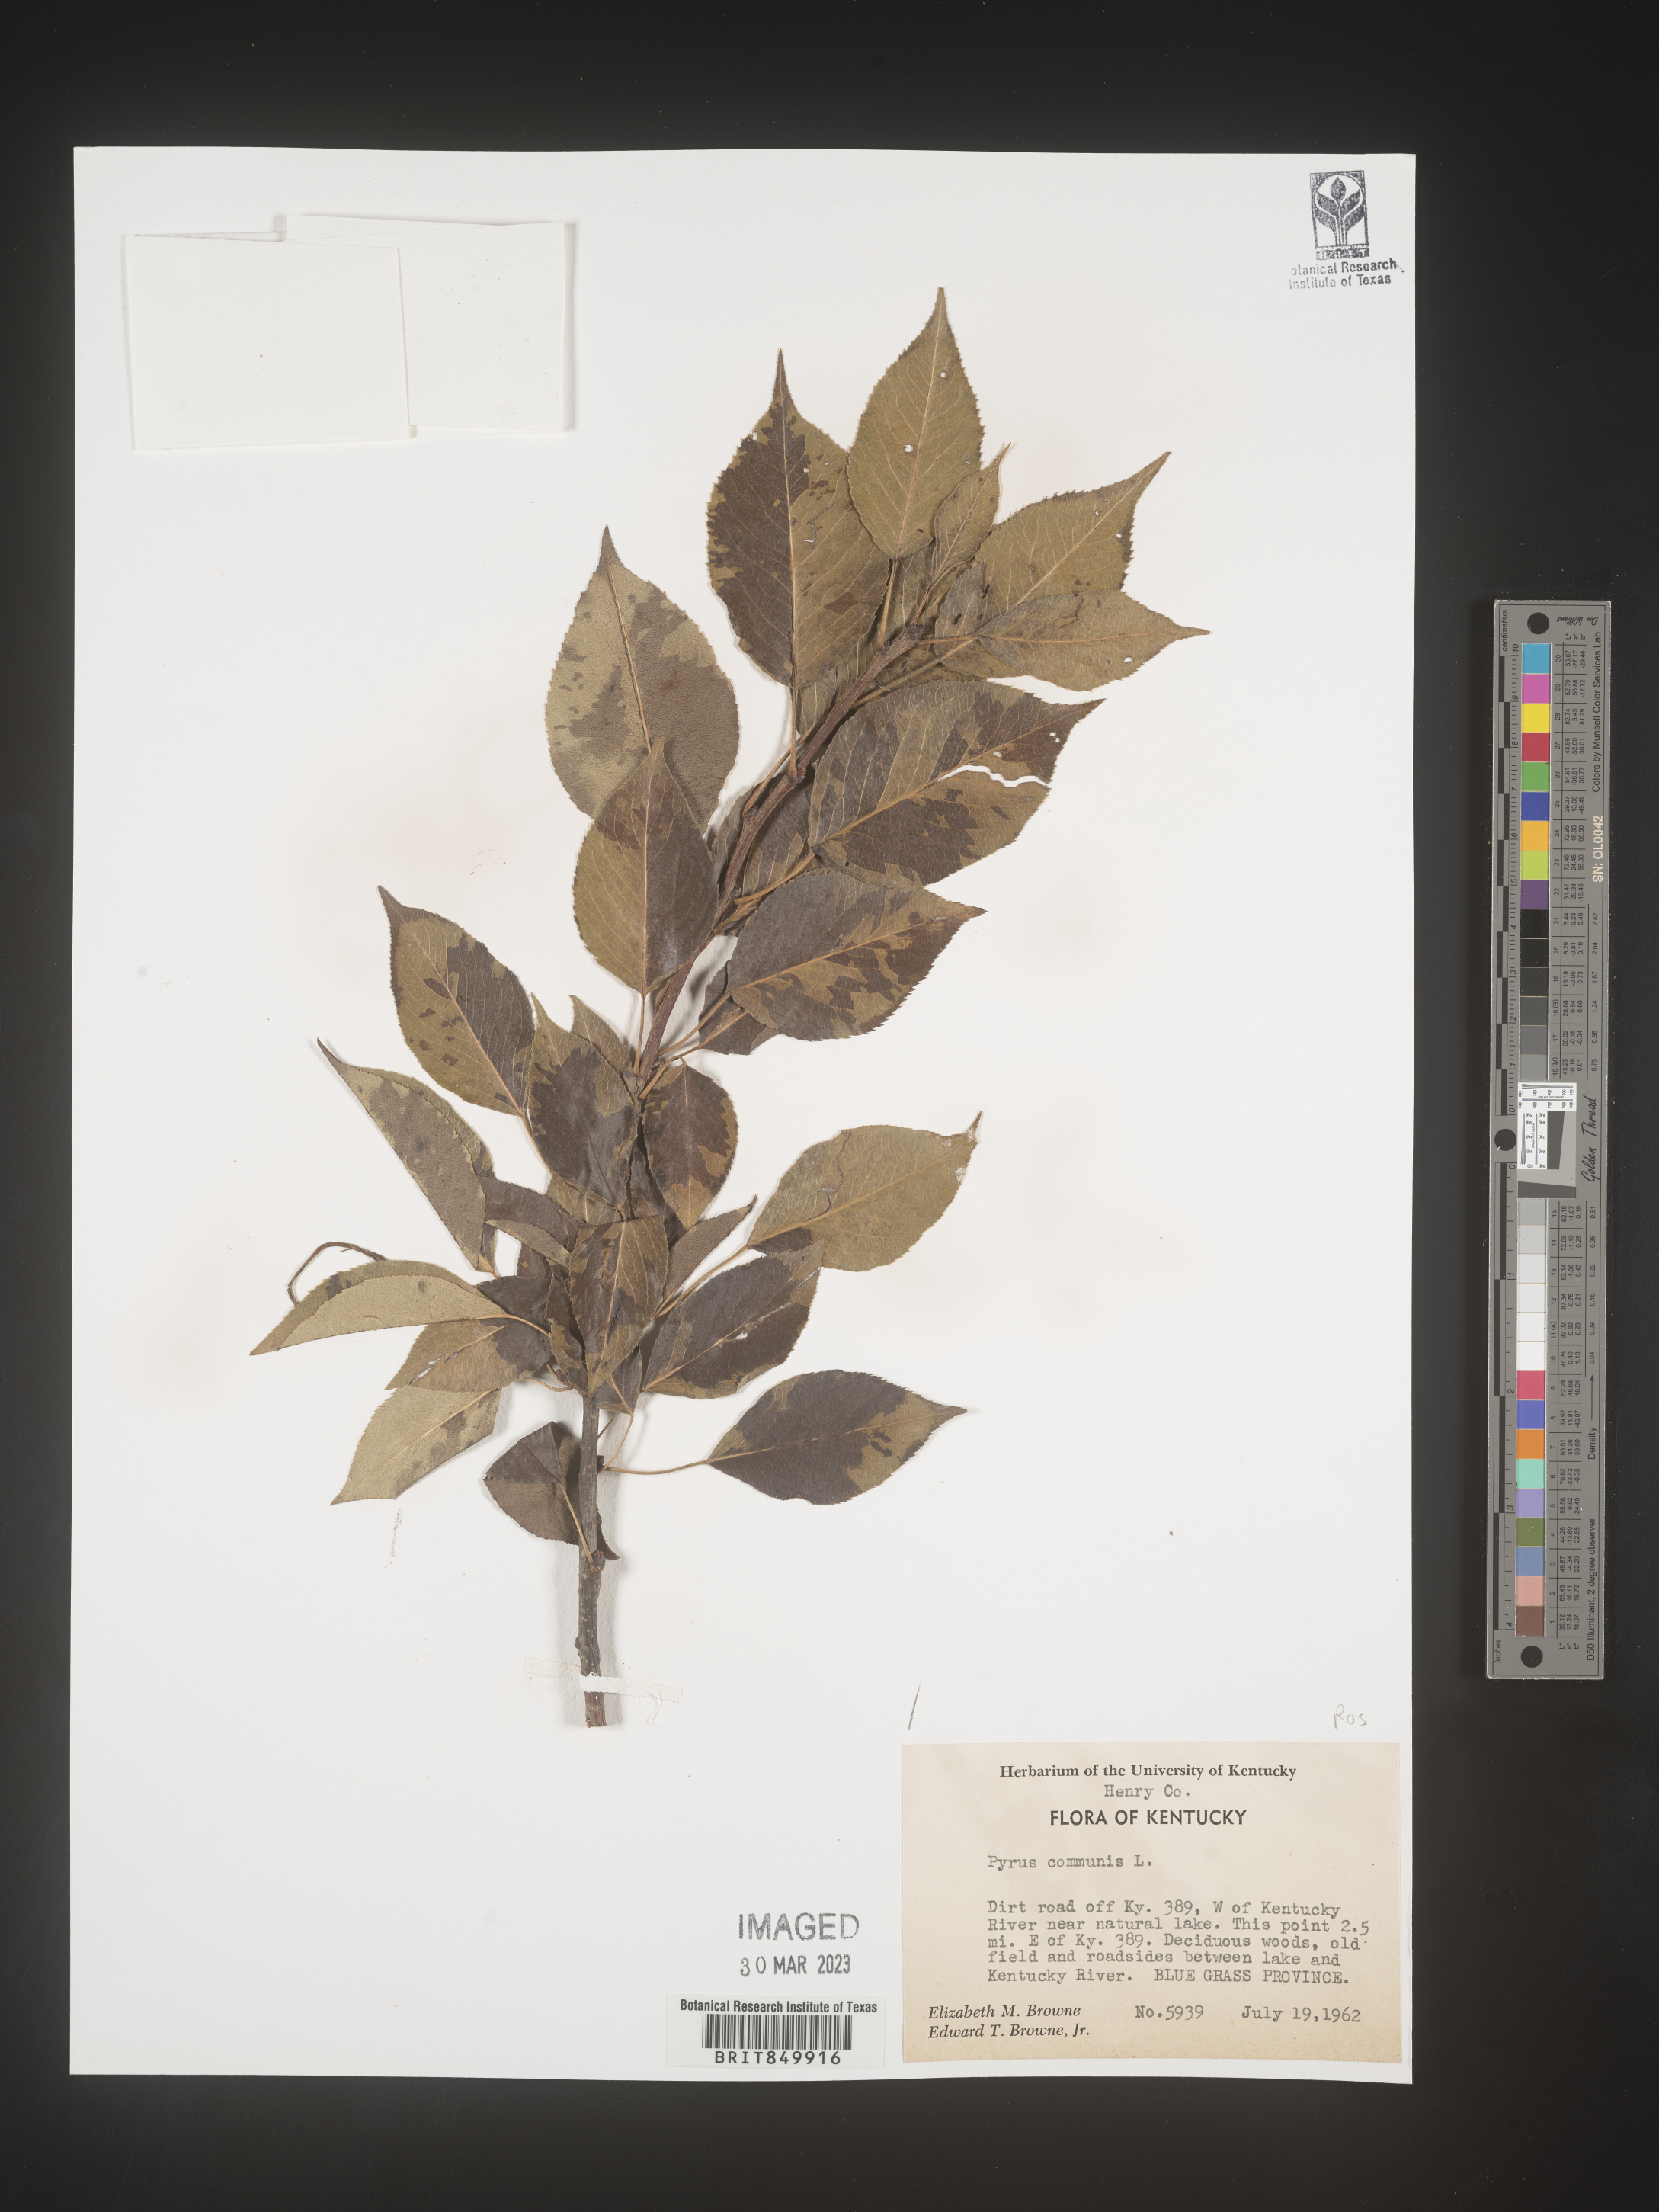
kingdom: Plantae
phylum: Tracheophyta
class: Magnoliopsida
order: Rosales
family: Rosaceae
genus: Pyrus
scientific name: Pyrus
